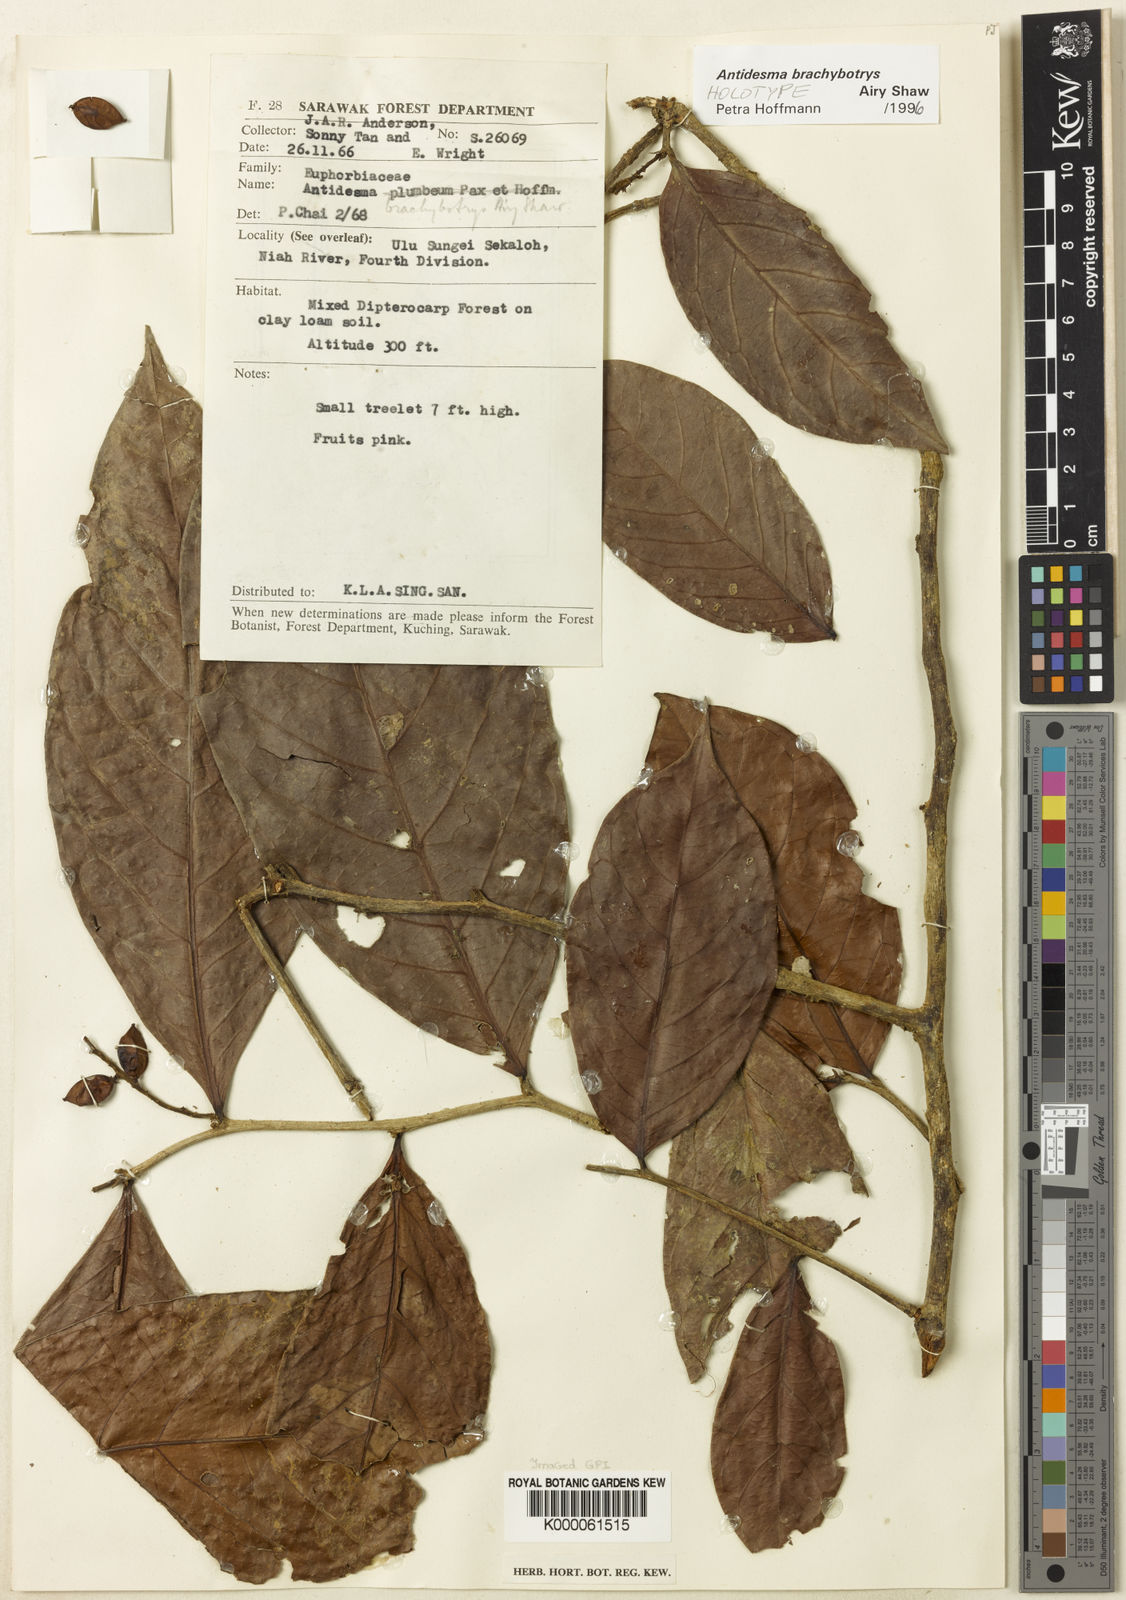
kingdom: Plantae
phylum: Tracheophyta
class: Magnoliopsida
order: Malpighiales
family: Phyllanthaceae
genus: Antidesma
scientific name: Antidesma brachybotrys
